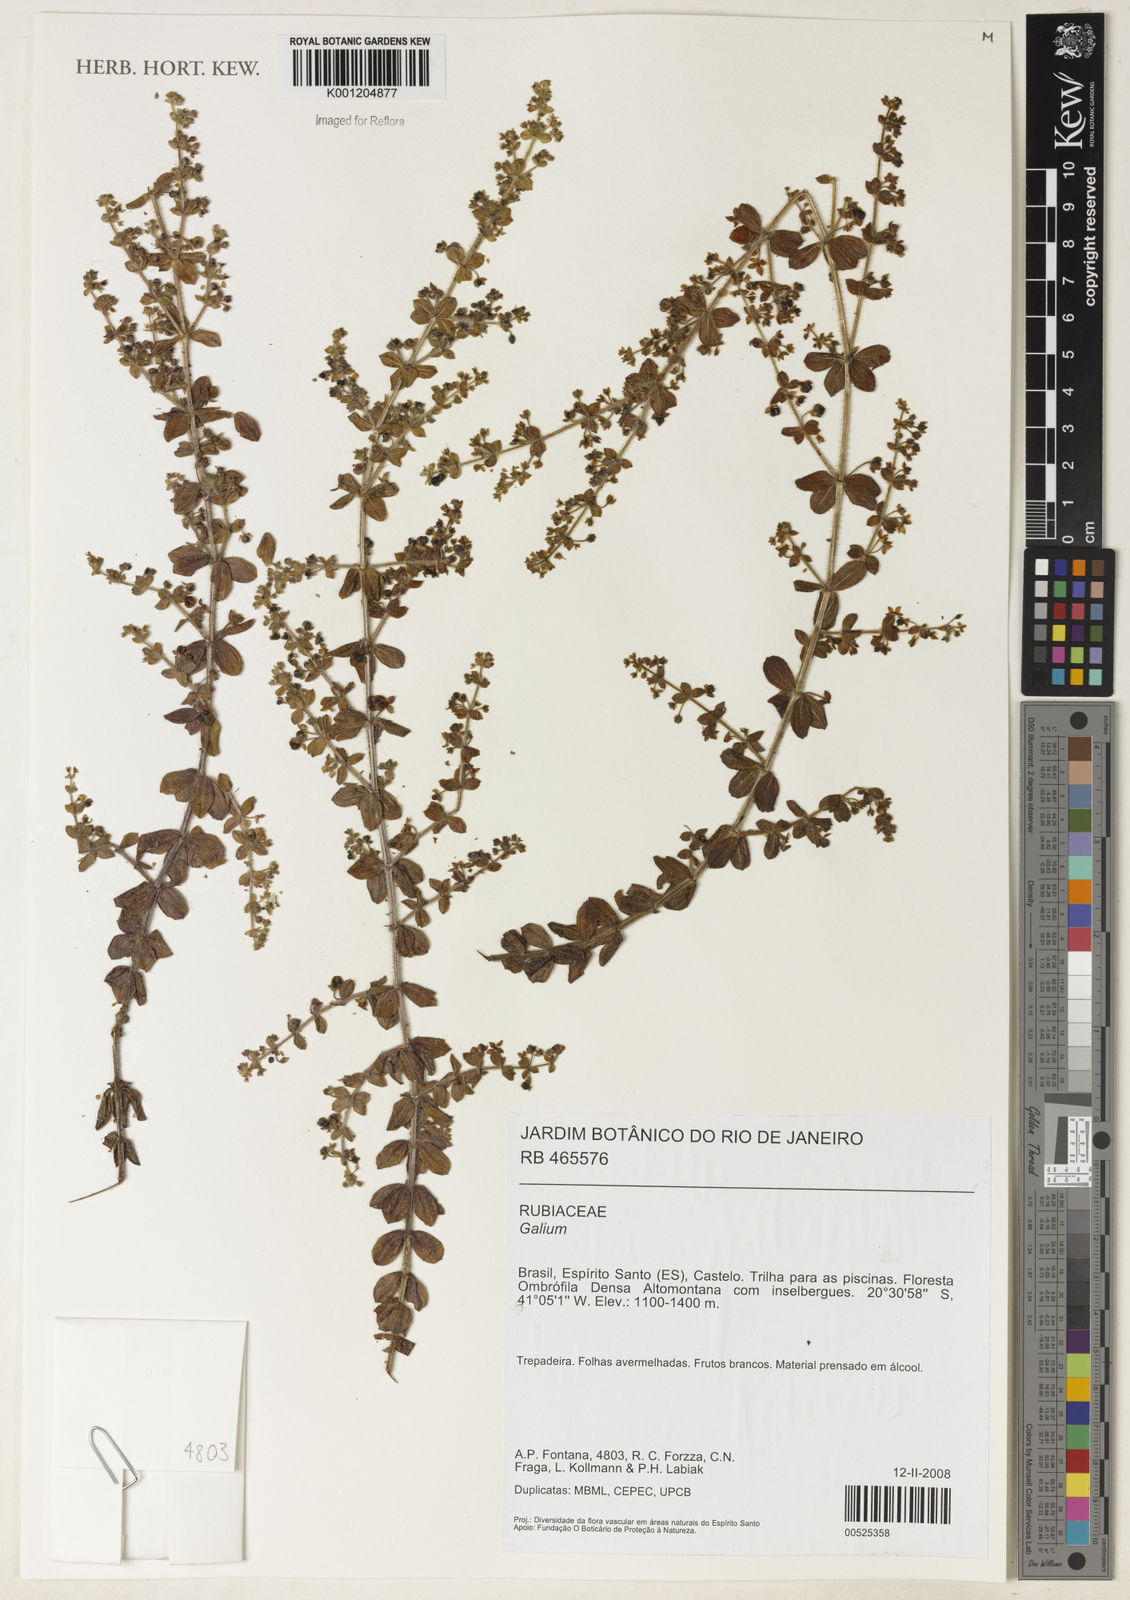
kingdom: Plantae
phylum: Tracheophyta
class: Magnoliopsida
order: Gentianales
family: Rubiaceae
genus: Galium
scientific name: Galium
